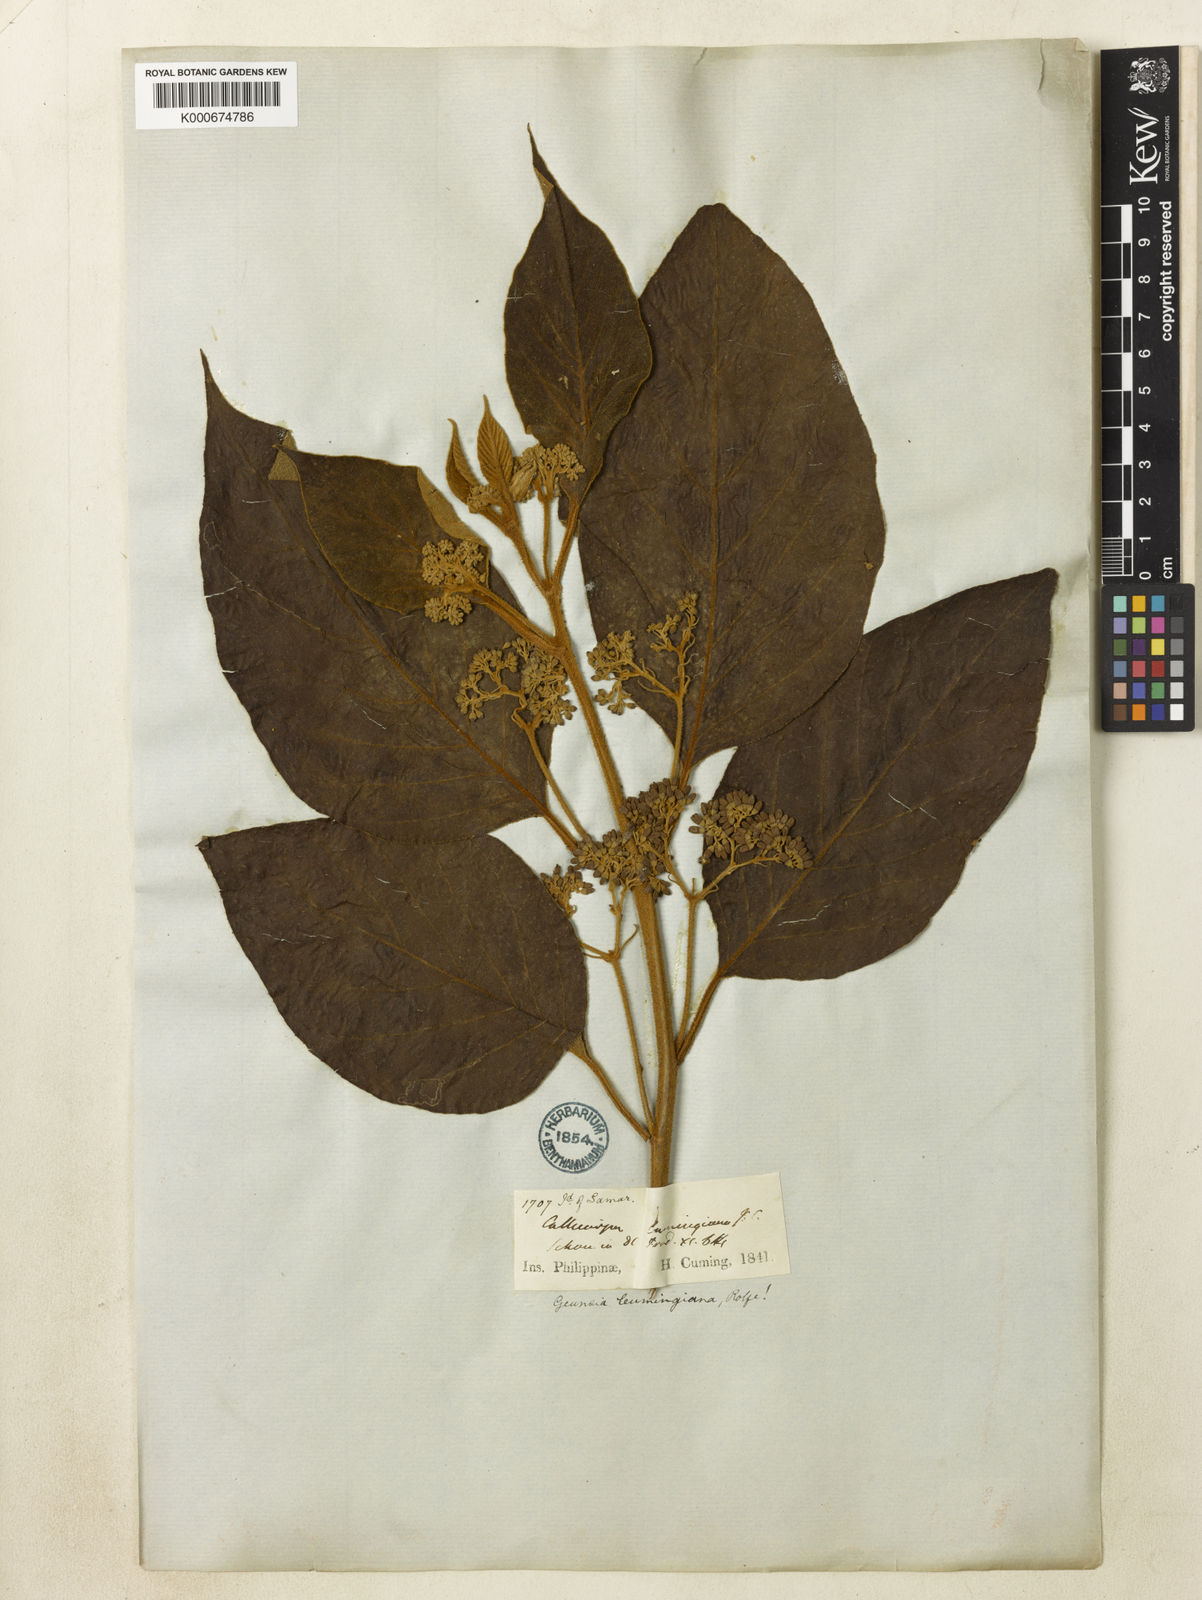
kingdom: Plantae
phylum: Tracheophyta
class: Magnoliopsida
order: Lamiales
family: Lamiaceae
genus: Callicarpa
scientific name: Callicarpa pentandra
